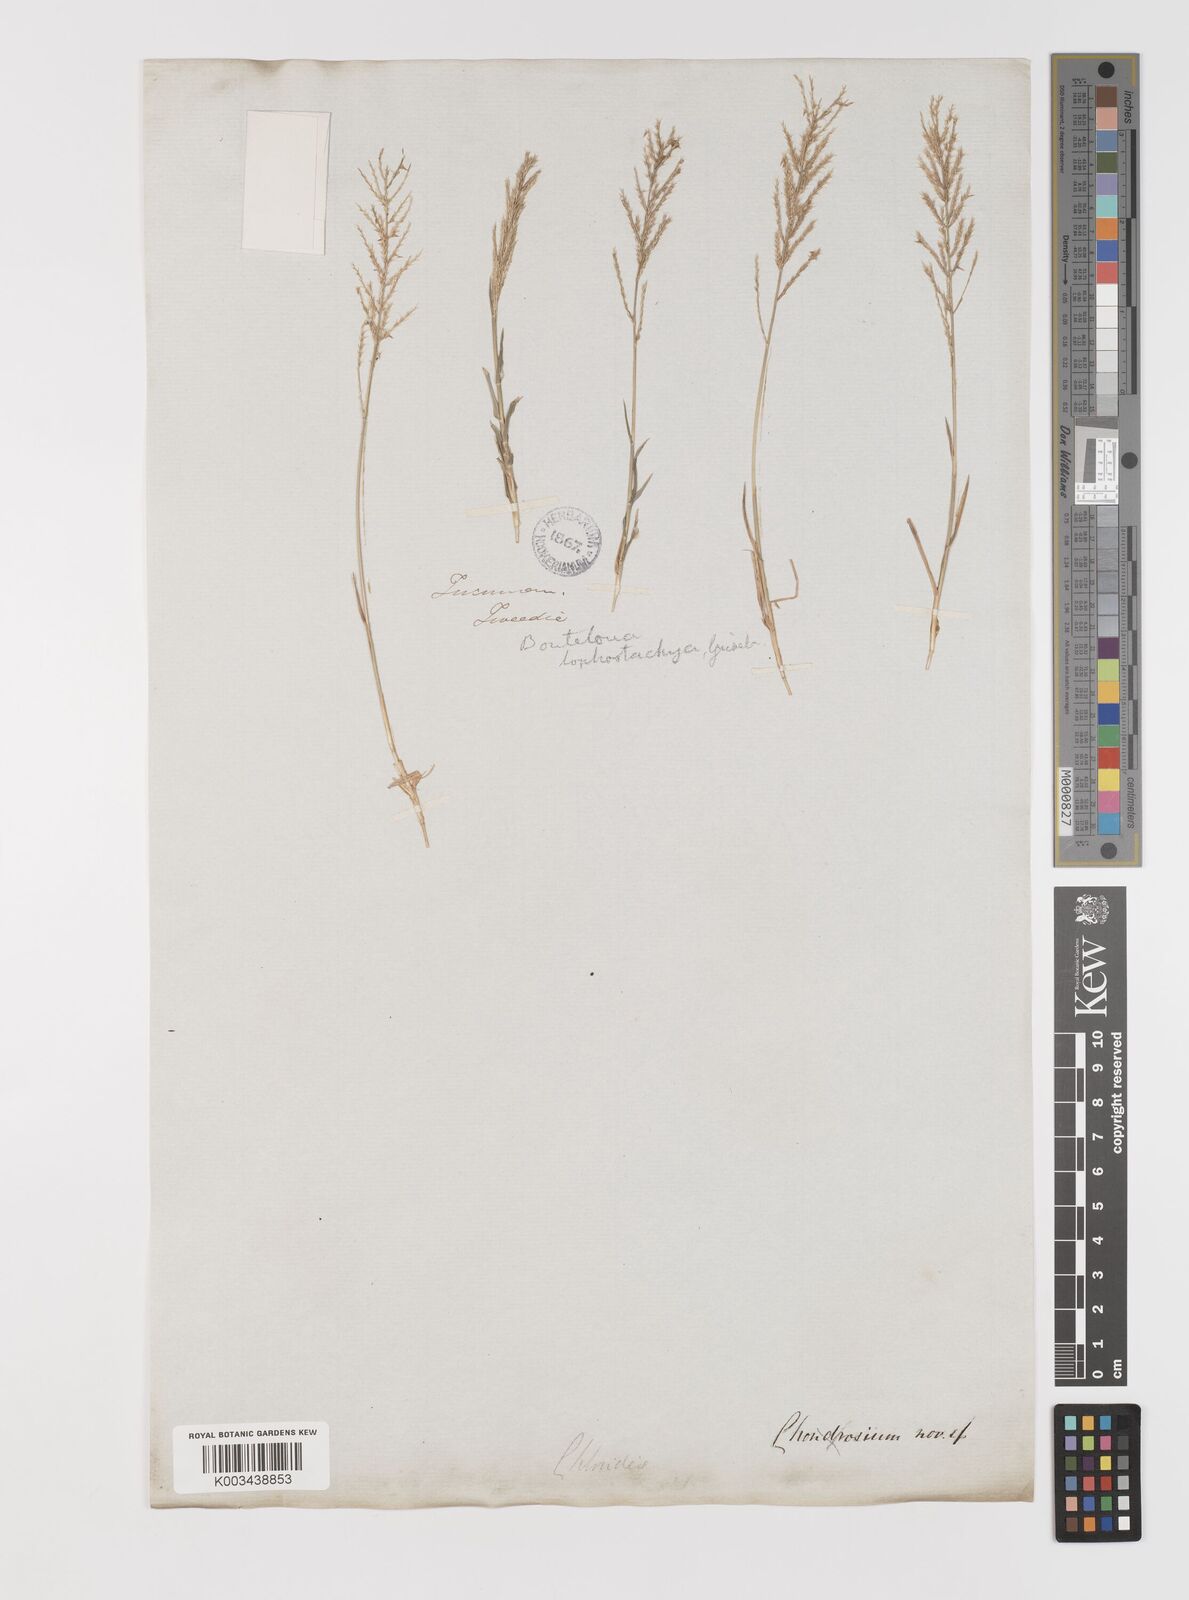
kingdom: Plantae
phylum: Tracheophyta
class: Liliopsida
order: Poales
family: Poaceae
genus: Neobouteloua
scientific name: Neobouteloua lophostachya
